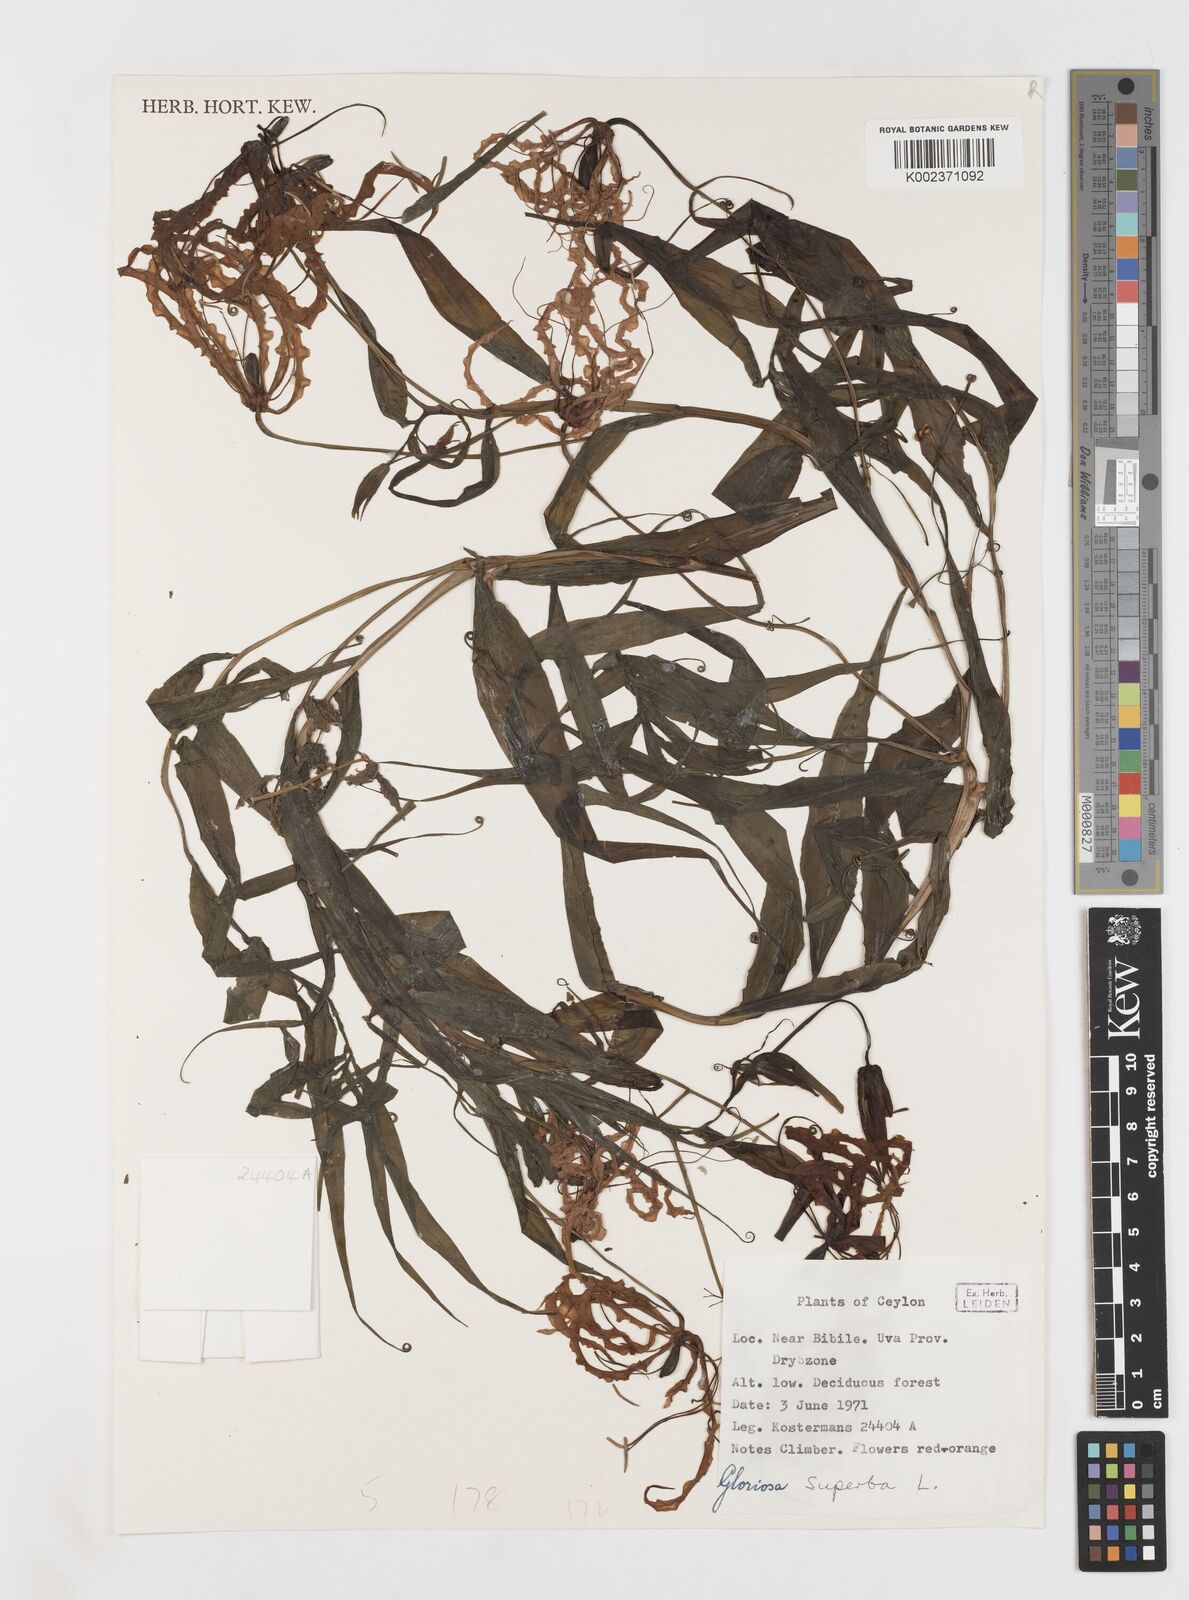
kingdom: Plantae
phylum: Tracheophyta
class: Liliopsida
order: Liliales
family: Colchicaceae
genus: Gloriosa
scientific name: Gloriosa superba
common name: Flame lily
